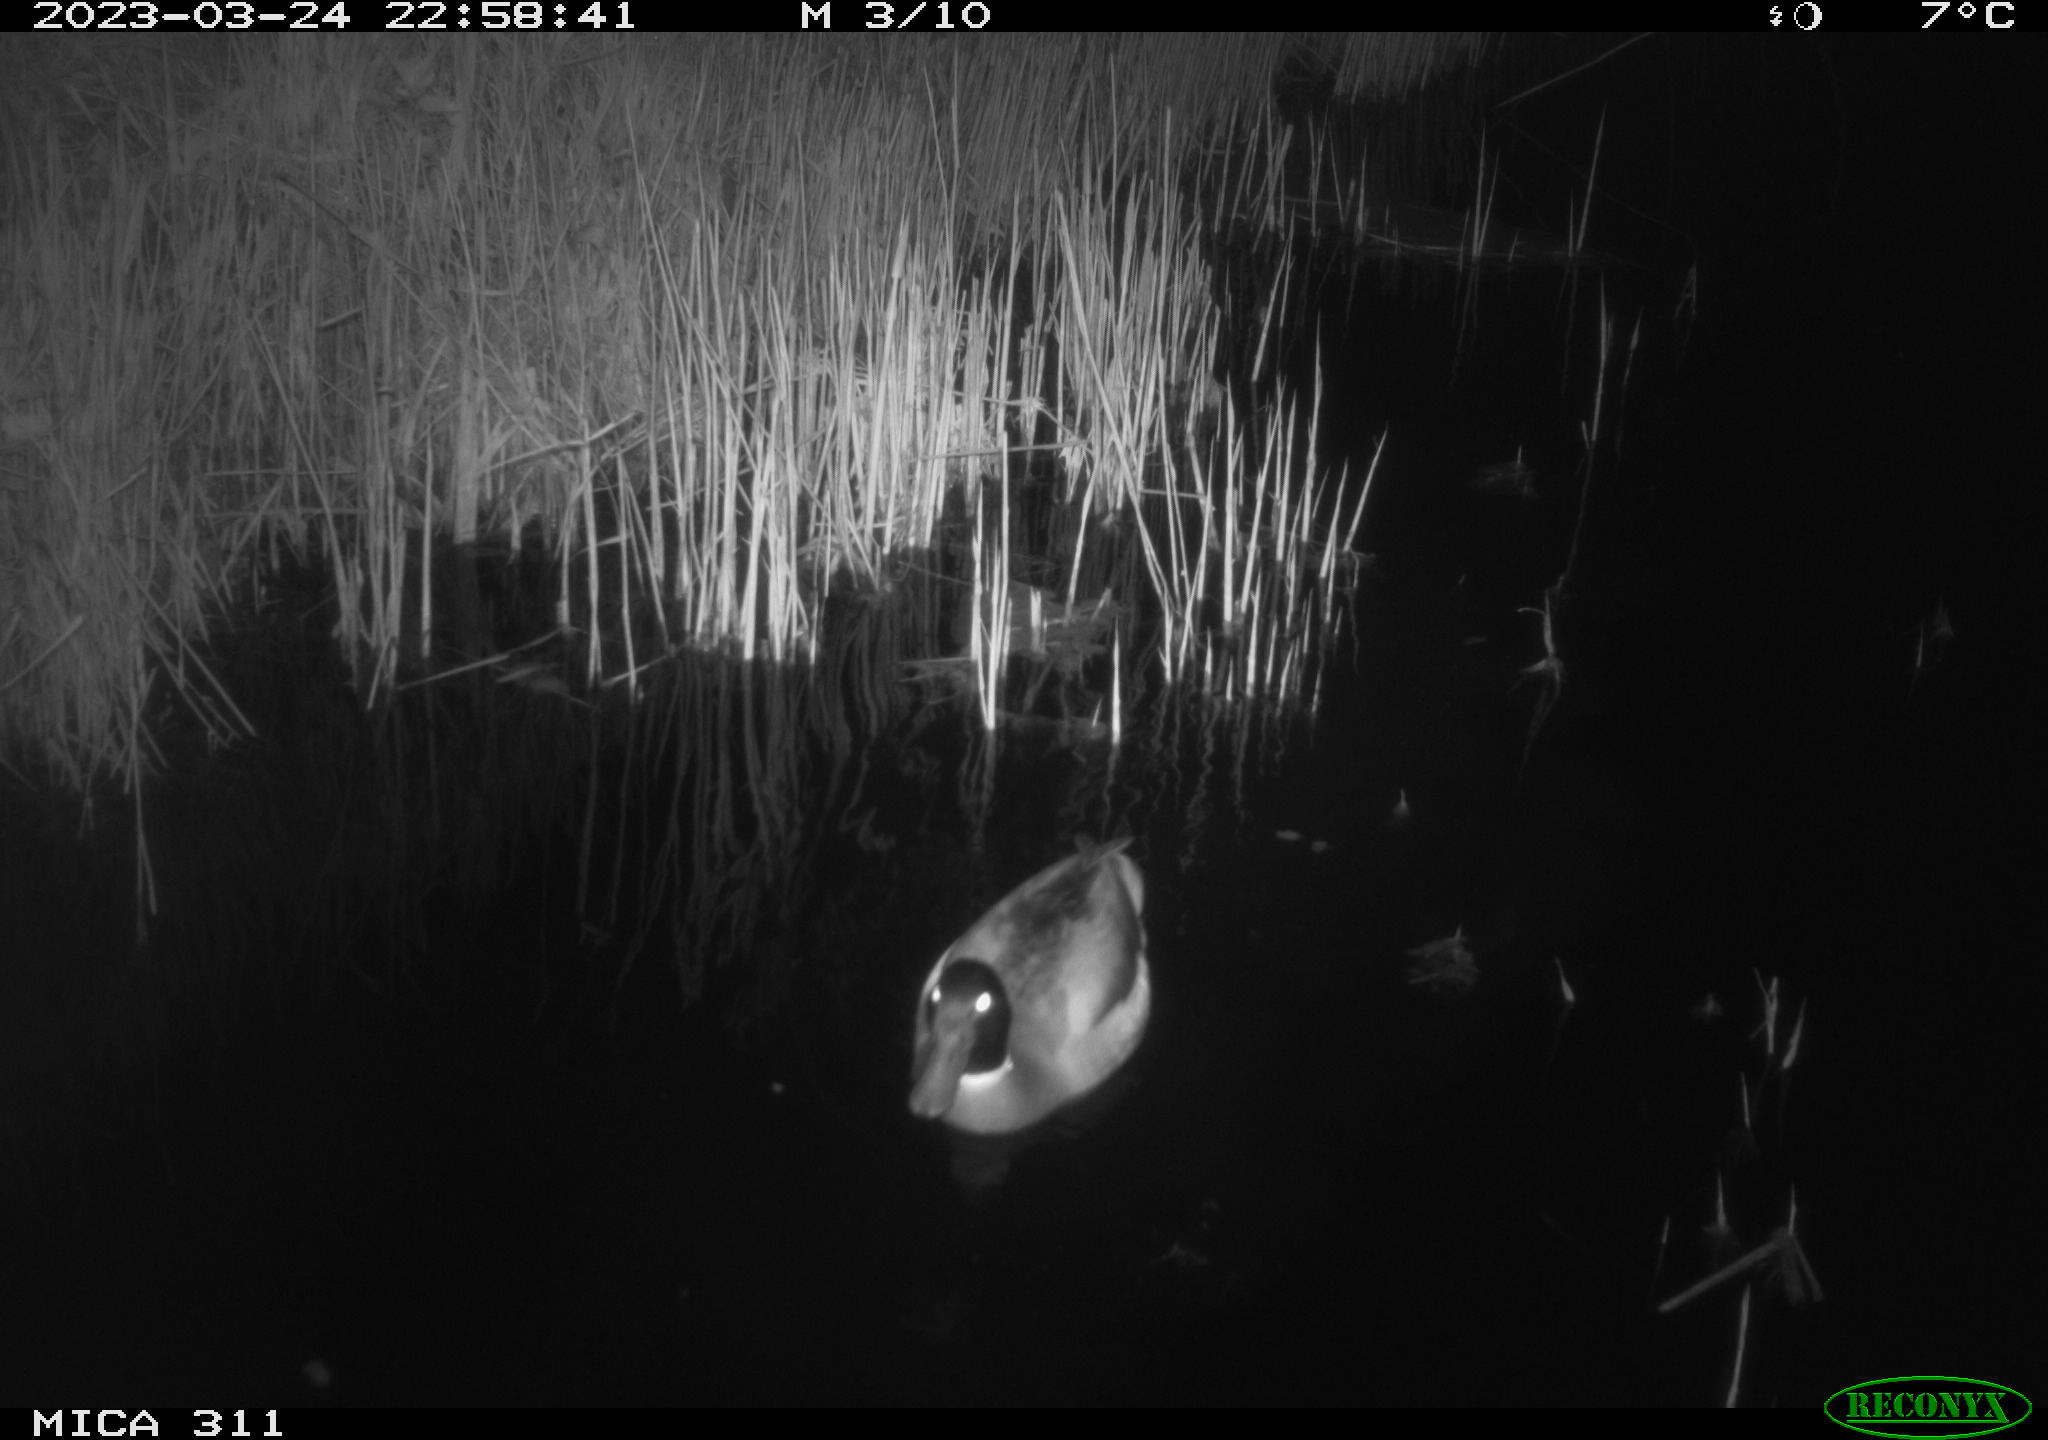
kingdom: Animalia
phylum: Chordata
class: Aves
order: Anseriformes
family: Anatidae
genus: Anas
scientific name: Anas
